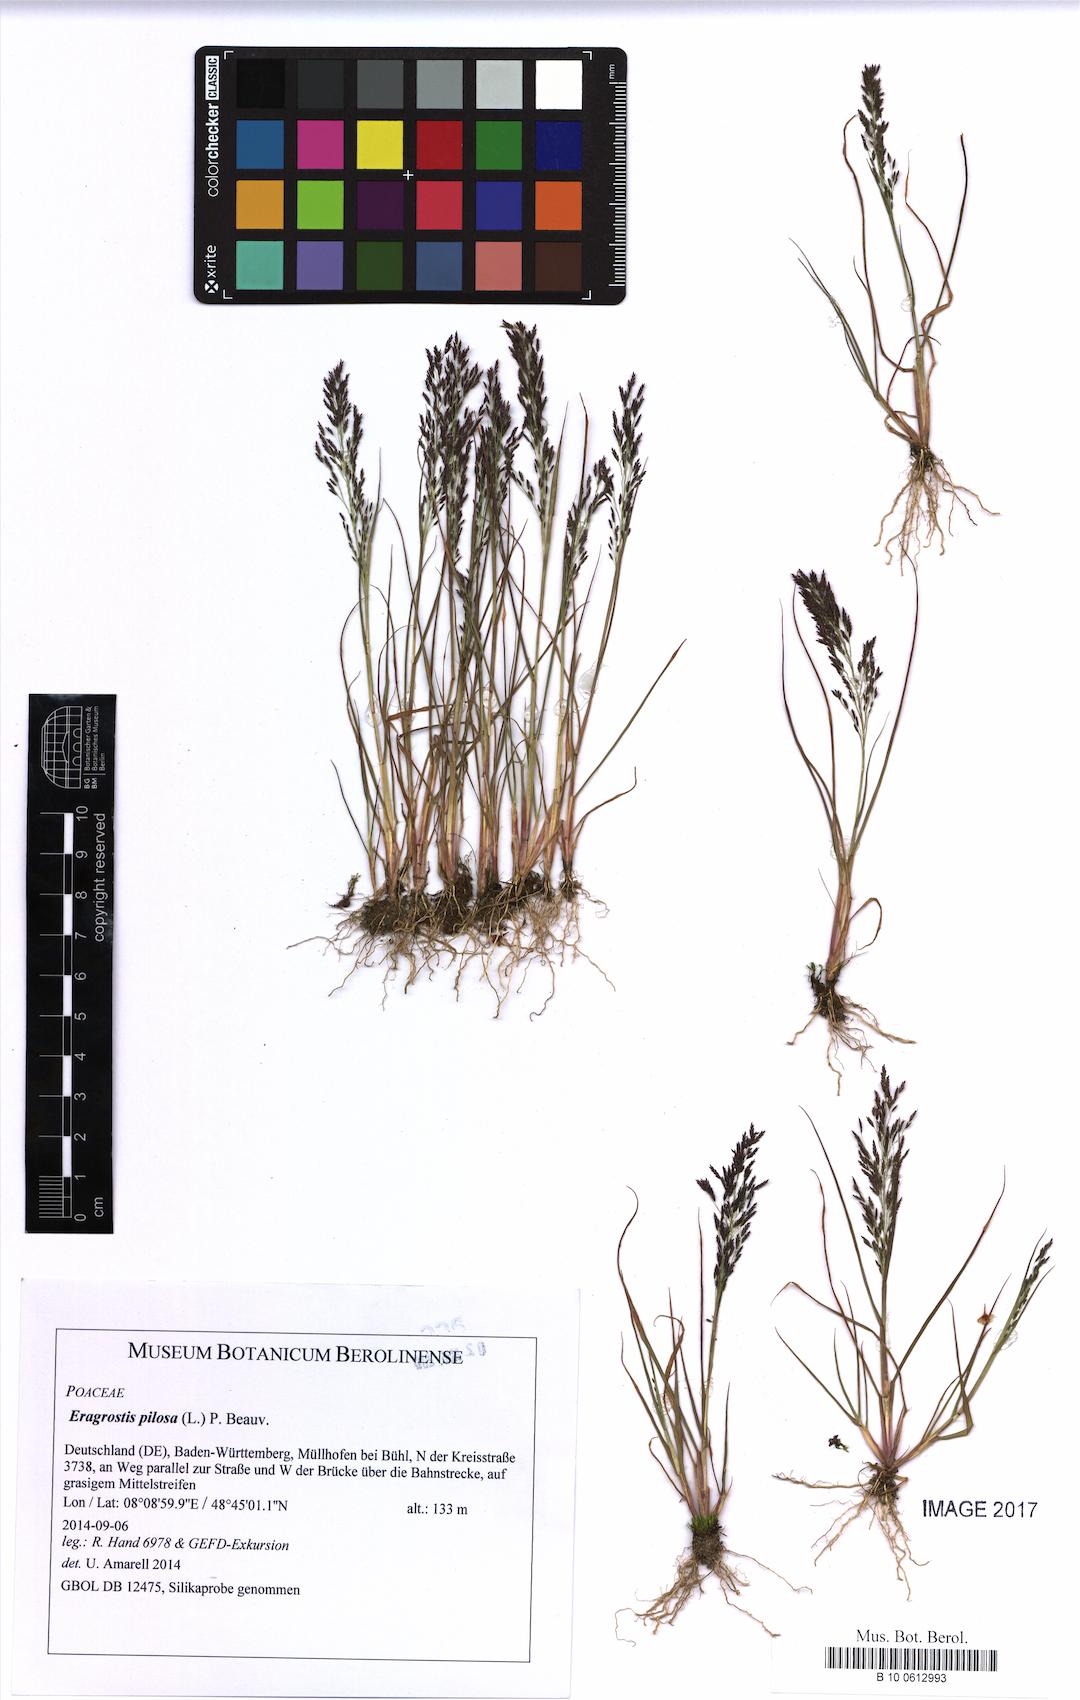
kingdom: Plantae
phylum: Tracheophyta
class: Liliopsida
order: Poales
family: Poaceae
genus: Eragrostis
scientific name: Eragrostis pilosa
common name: Indian lovegrass
